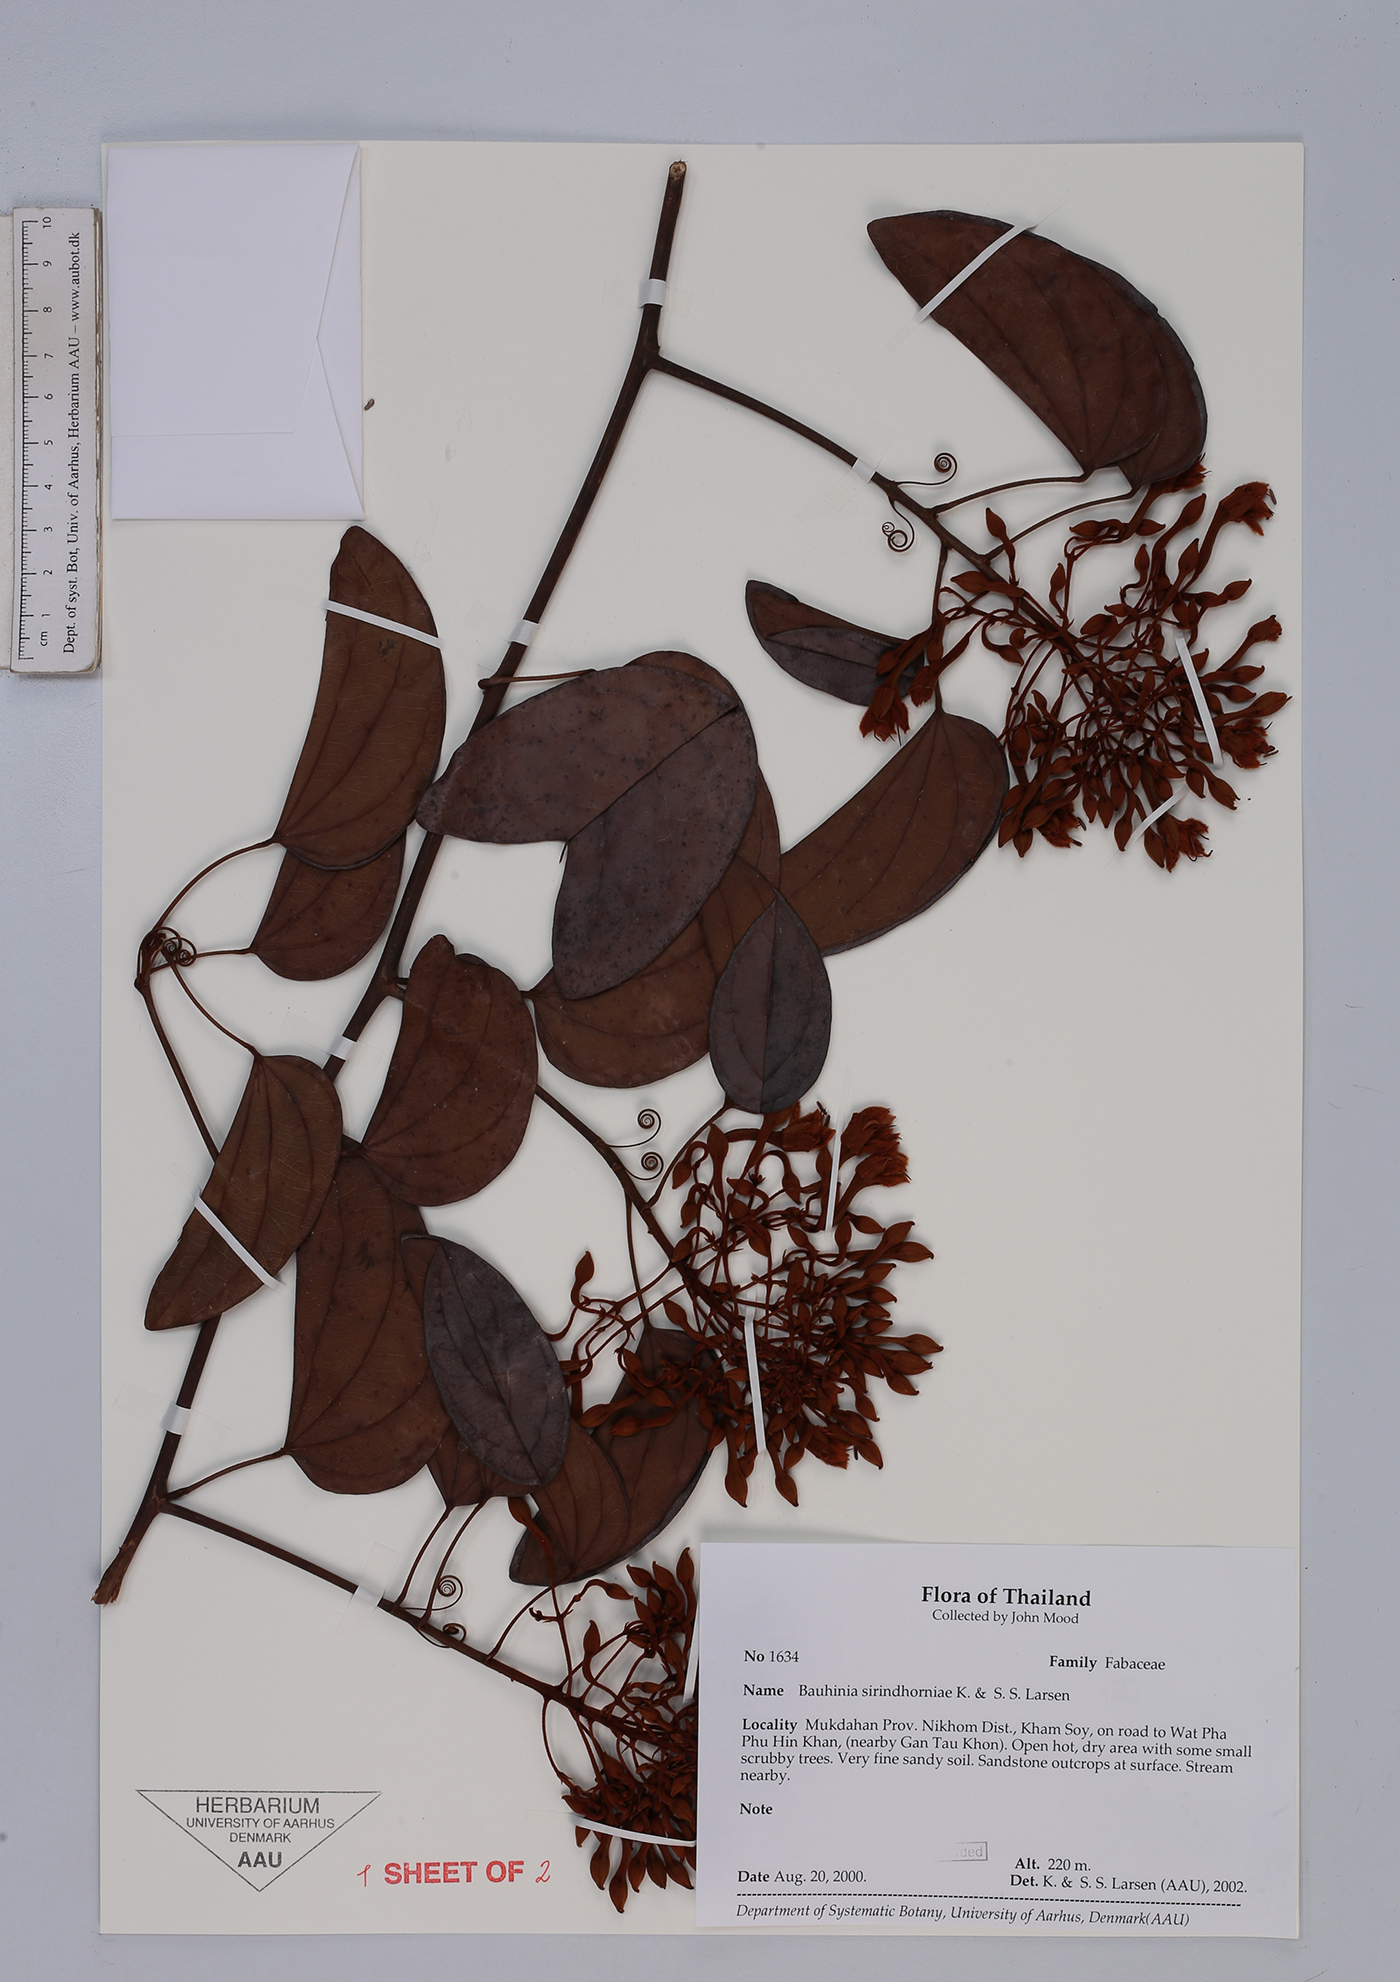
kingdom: Plantae
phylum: Tracheophyta
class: Magnoliopsida
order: Fabales
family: Fabaceae
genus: Phanera
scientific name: Phanera sirindhorniae
